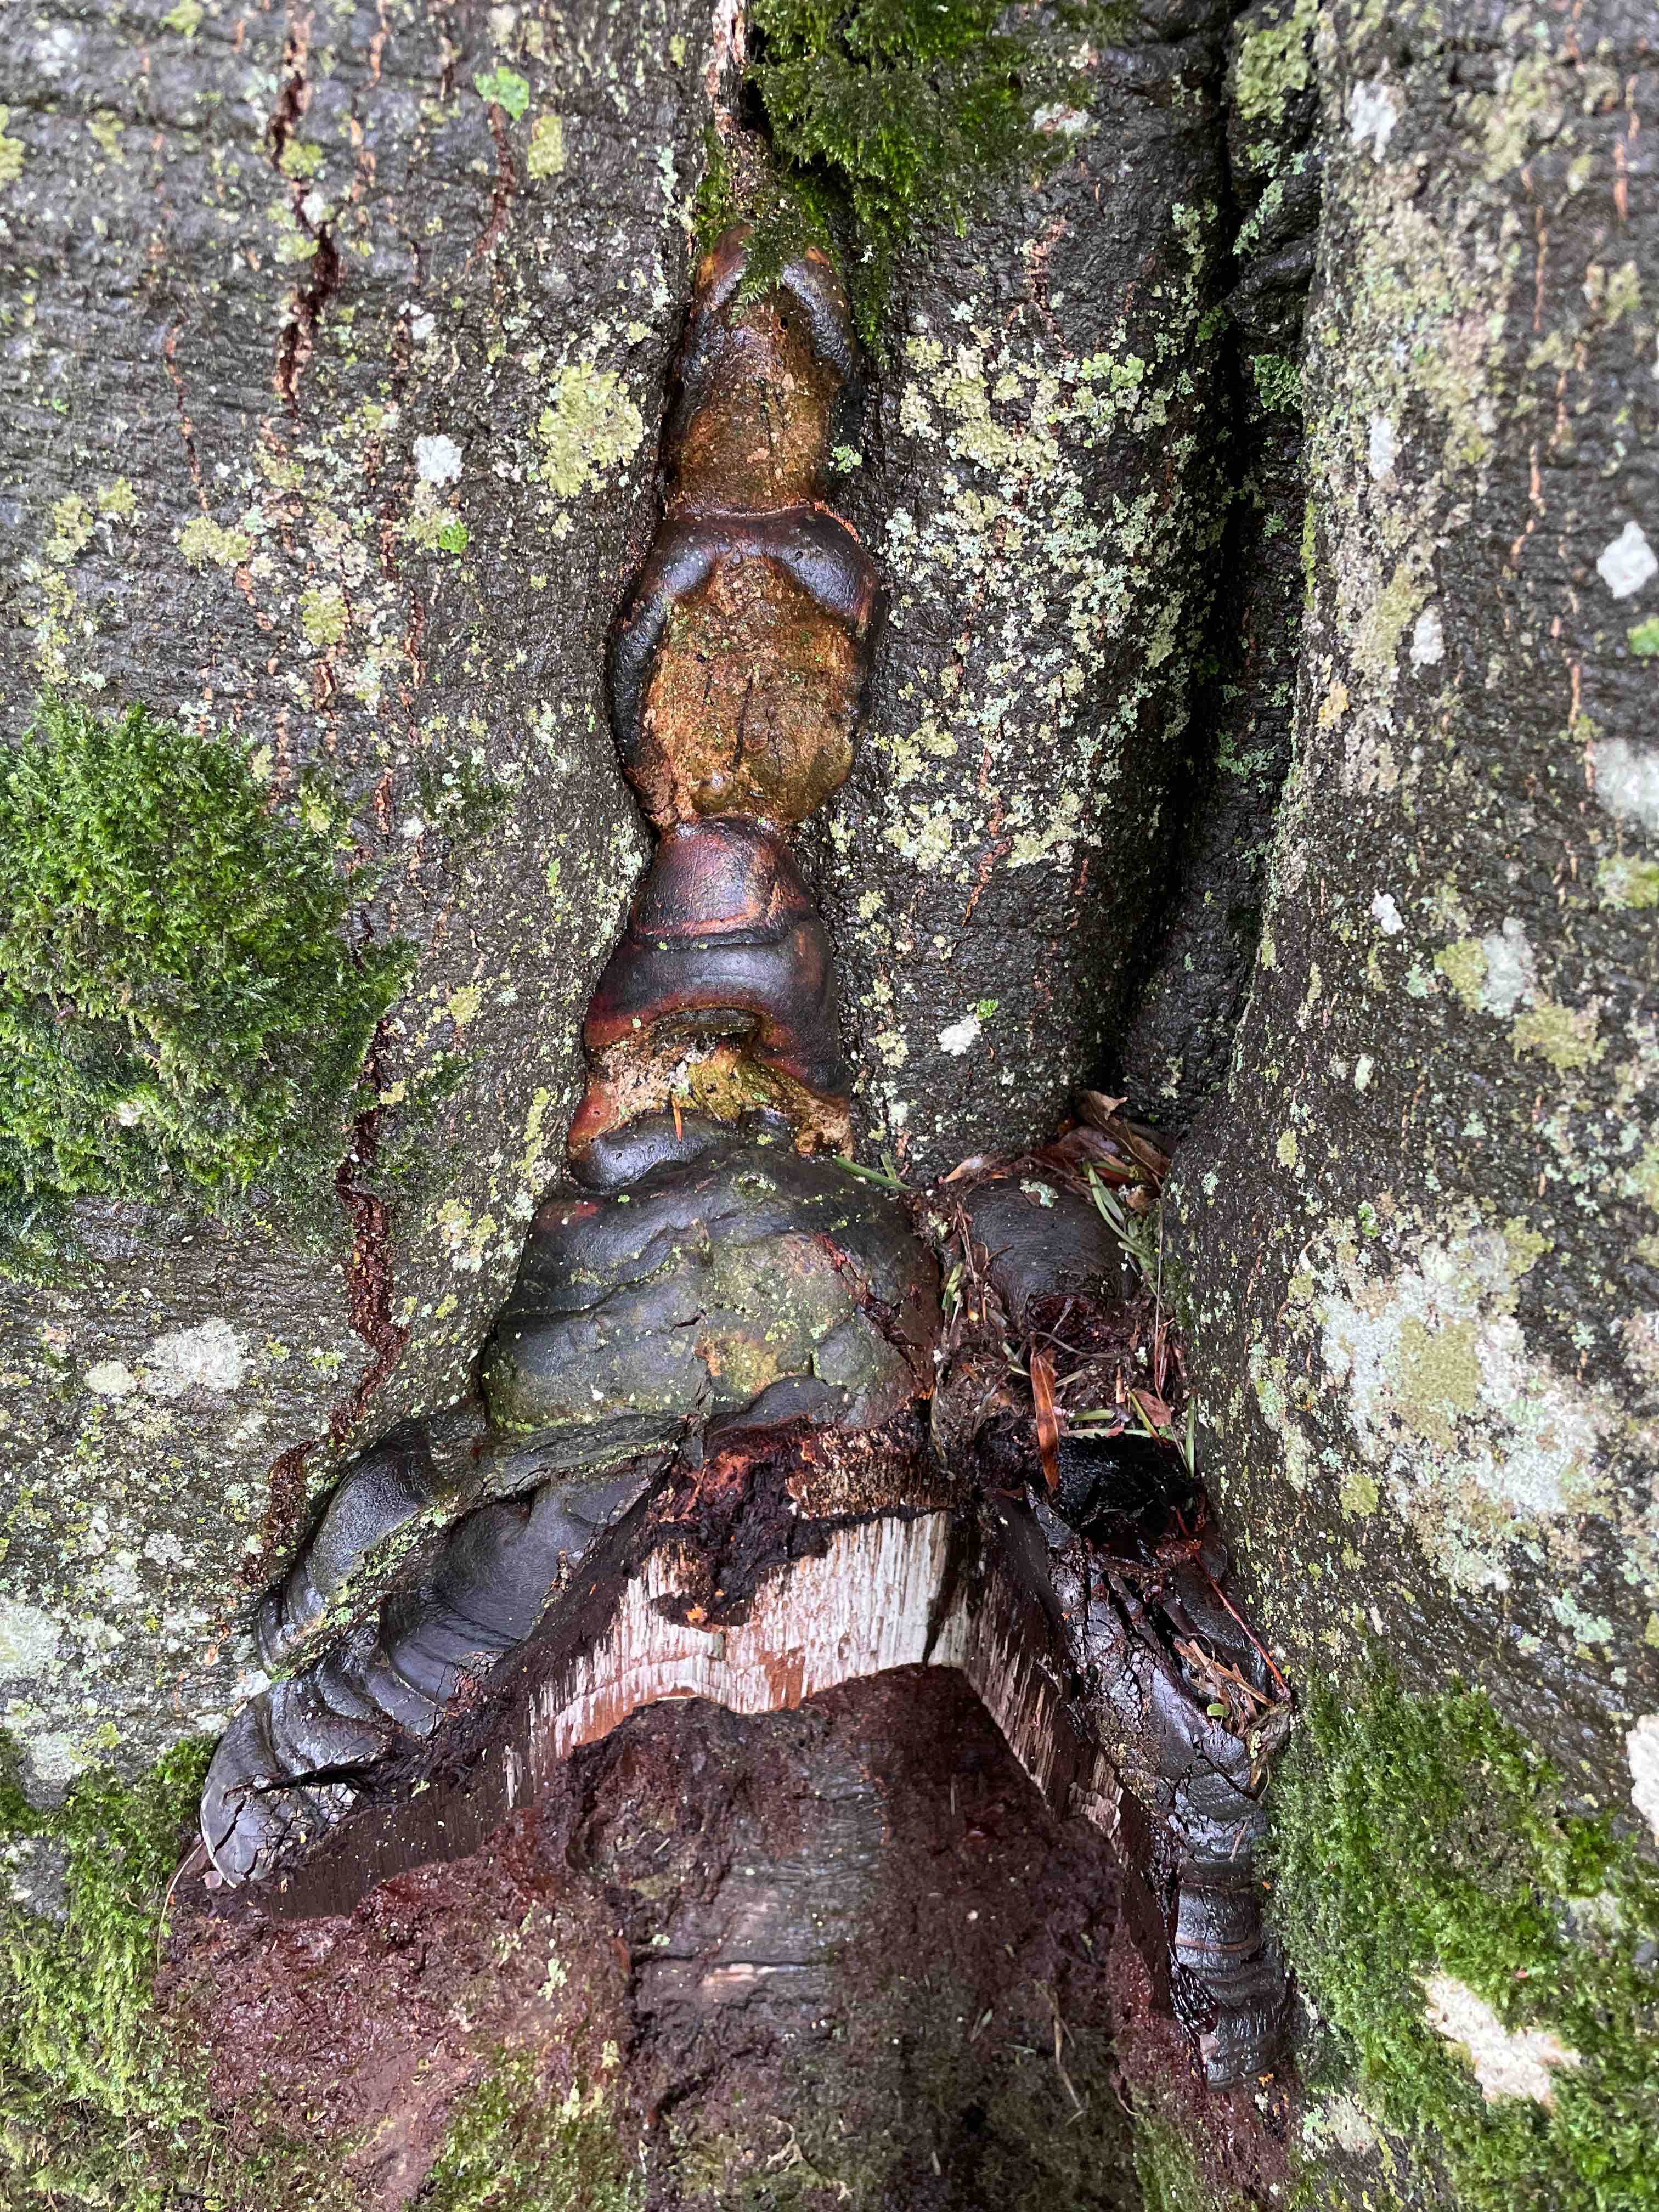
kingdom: Fungi
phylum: Basidiomycota
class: Agaricomycetes
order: Polyporales
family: Polyporaceae
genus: Ganoderma
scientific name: Ganoderma pfeifferi
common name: kobberrød lakporesvamp
